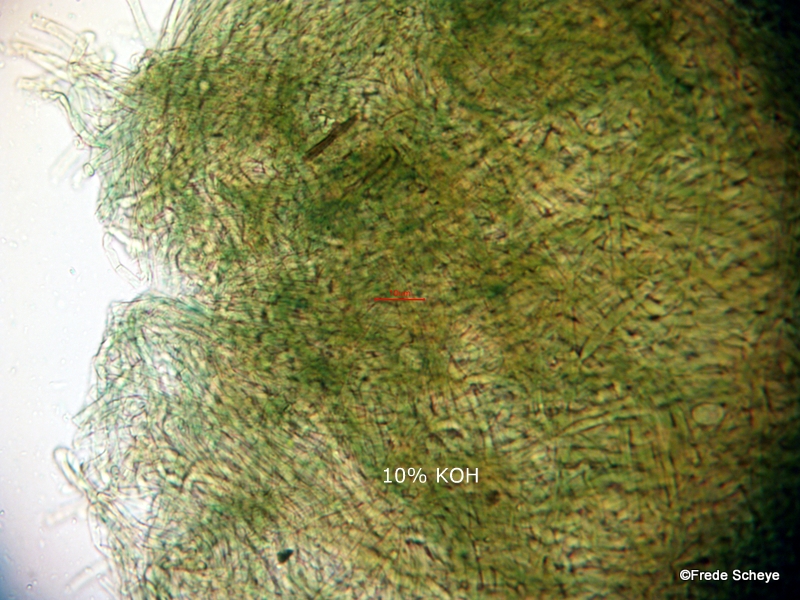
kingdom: Fungi
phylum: Basidiomycota
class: Agaricomycetes
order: Thelephorales
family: Thelephoraceae
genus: Phellodon
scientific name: Phellodon
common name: mørk duftpigsvamp
